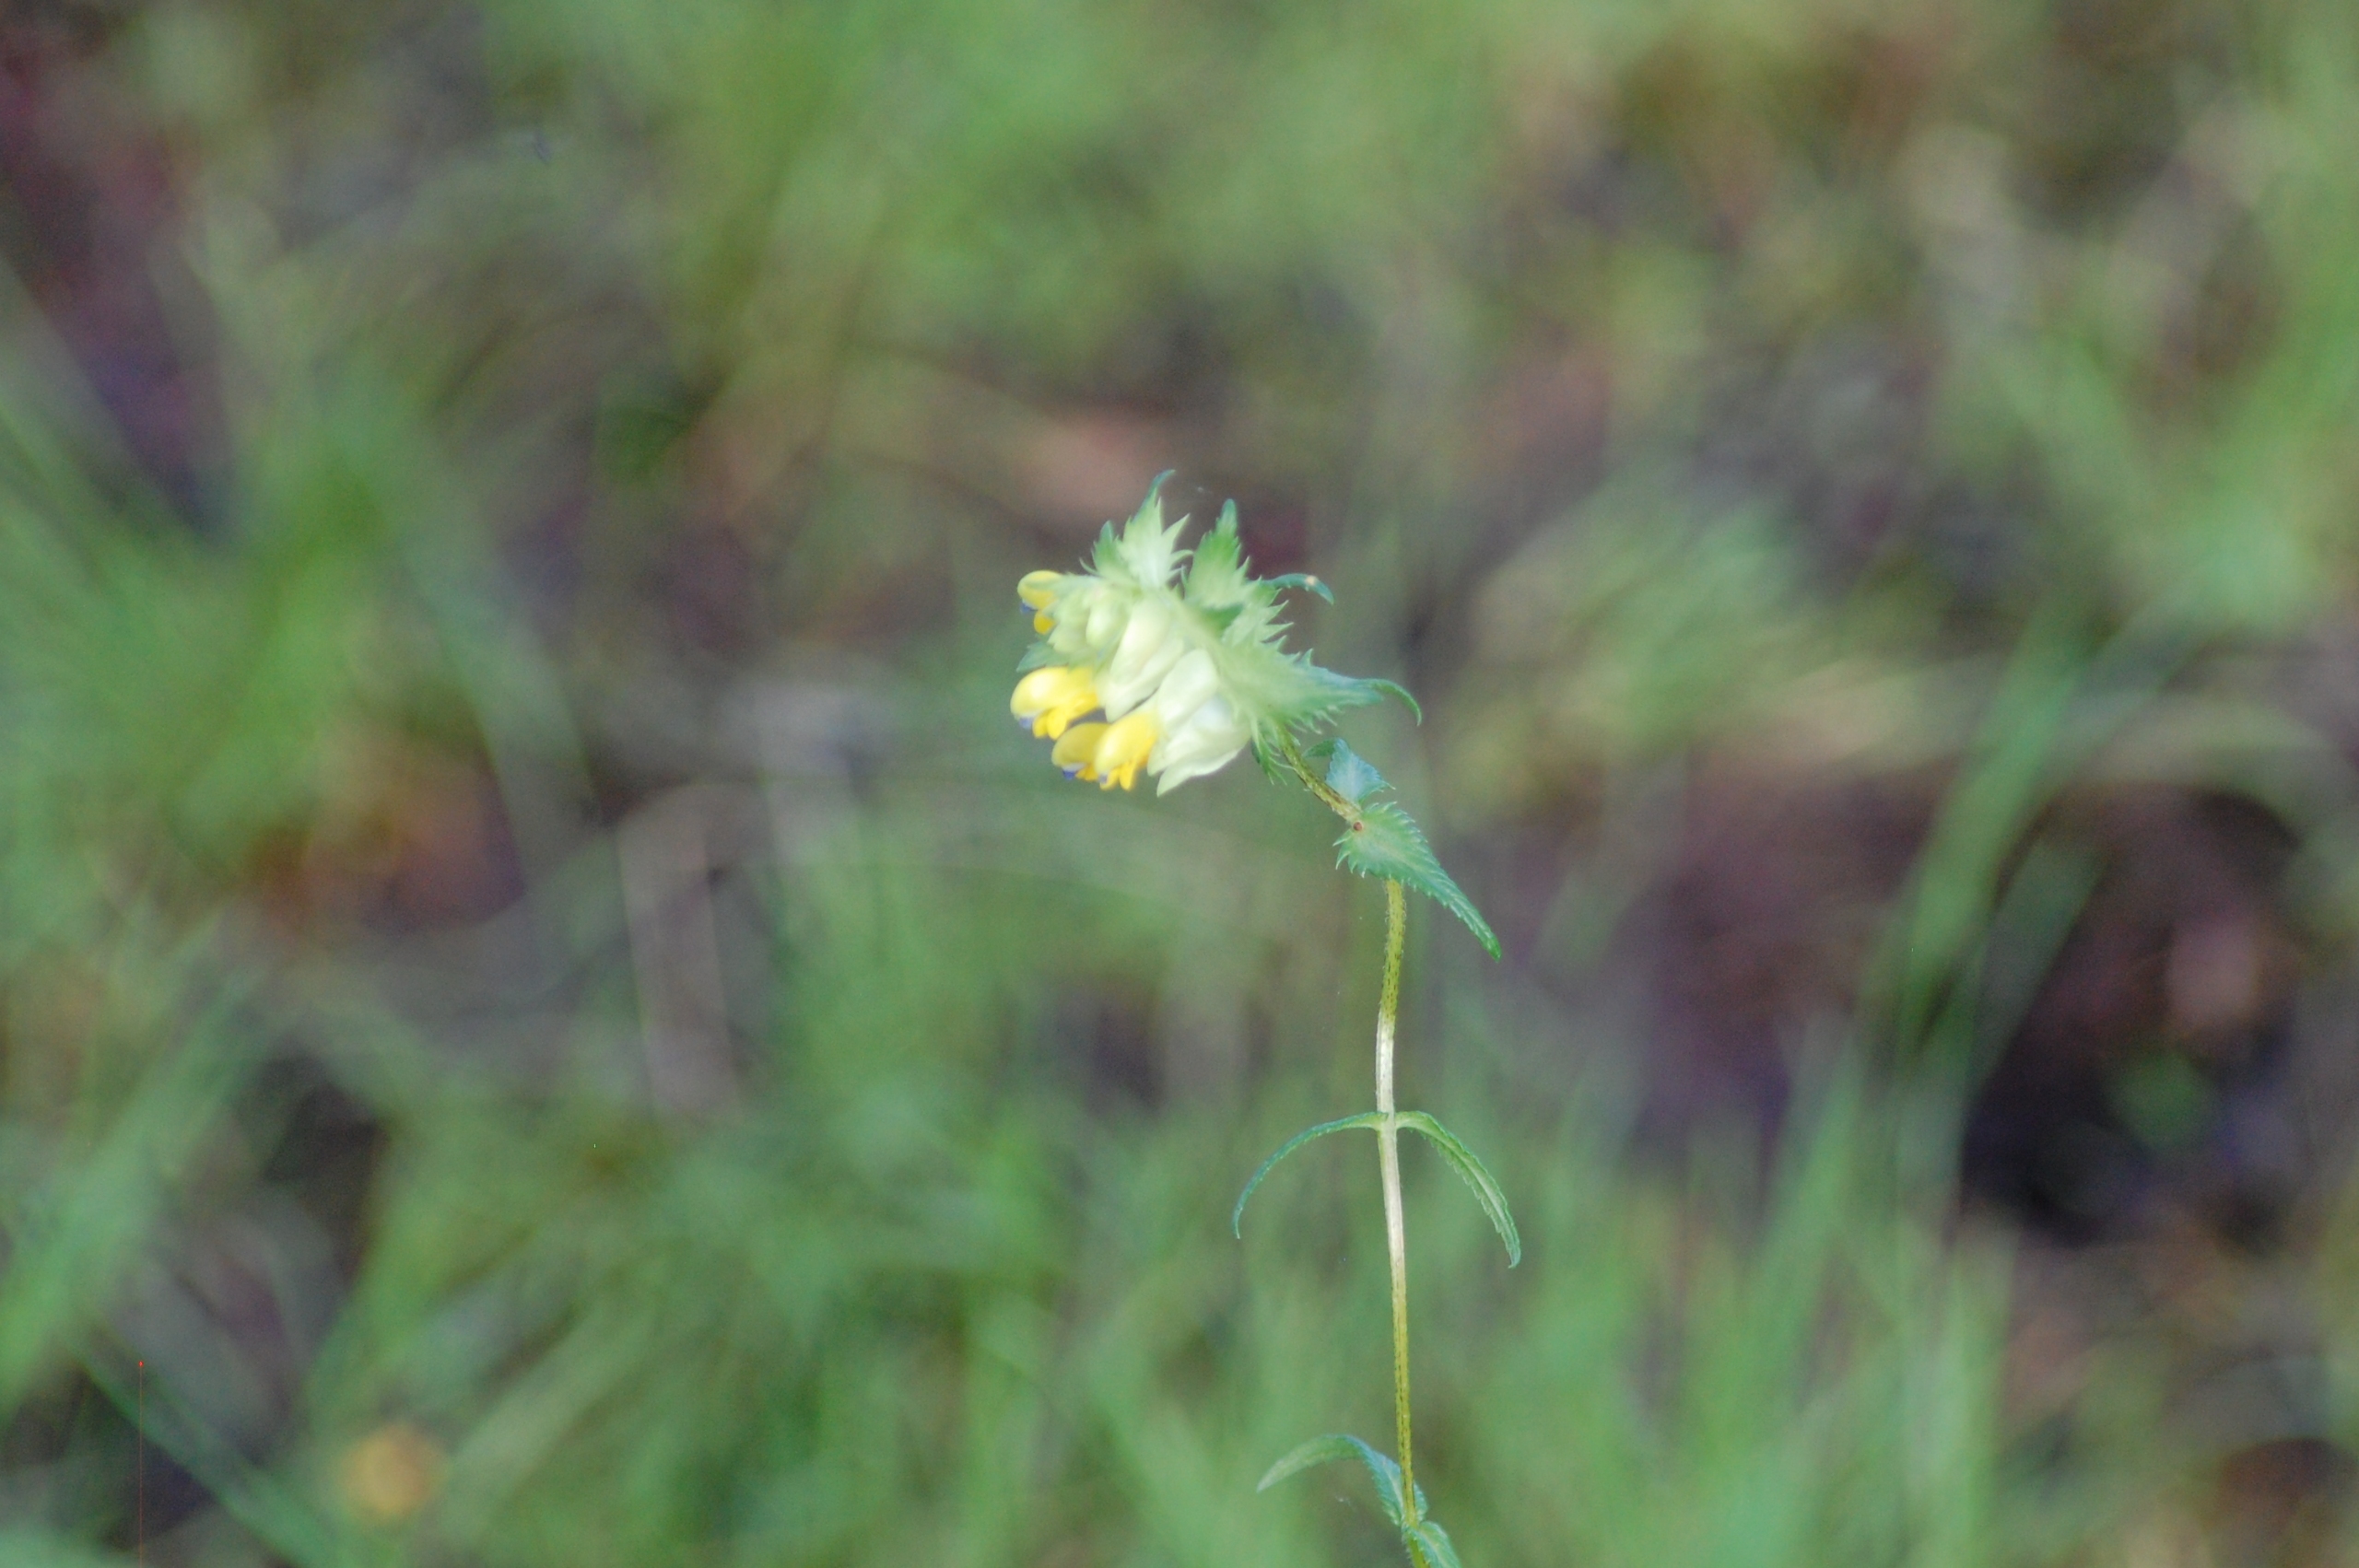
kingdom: Plantae
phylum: Tracheophyta
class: Magnoliopsida
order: Lamiales
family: Orobanchaceae
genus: Rhinanthus
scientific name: Rhinanthus
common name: Stor skjaller
